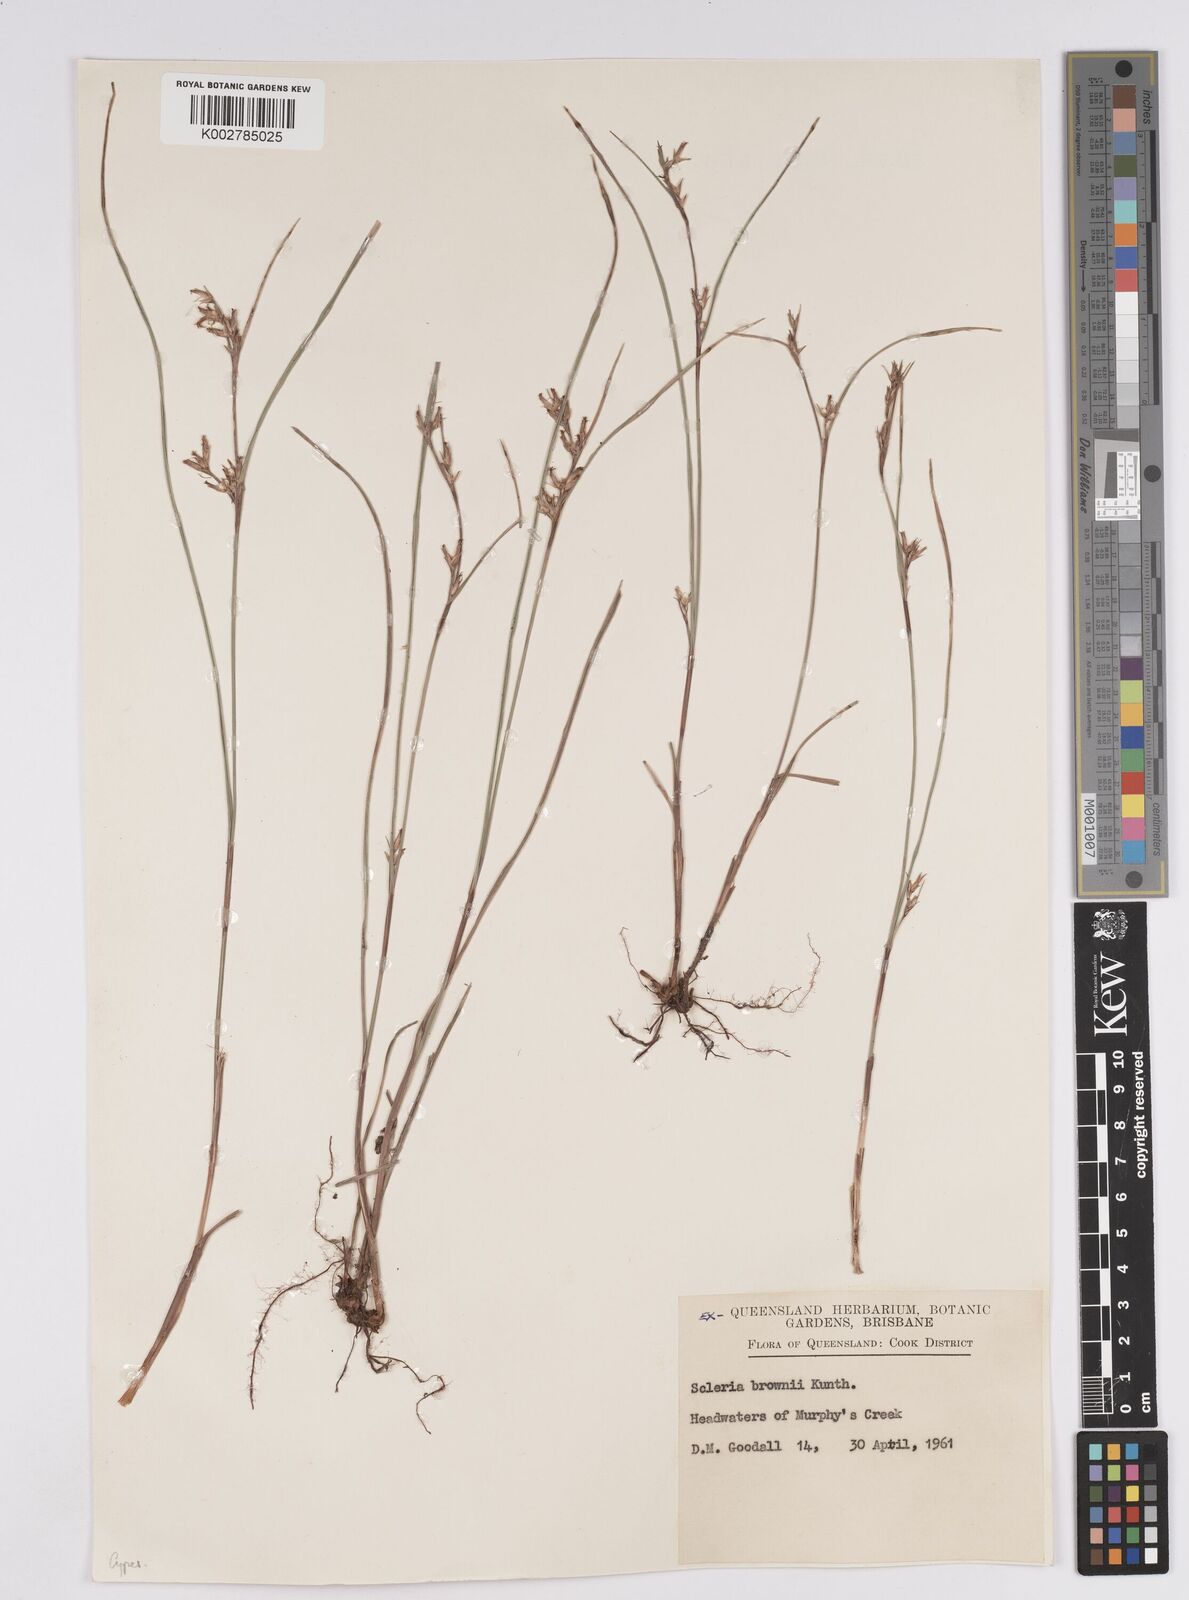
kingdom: Plantae
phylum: Tracheophyta
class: Liliopsida
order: Poales
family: Cyperaceae
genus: Scleria
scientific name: Scleria brownii
